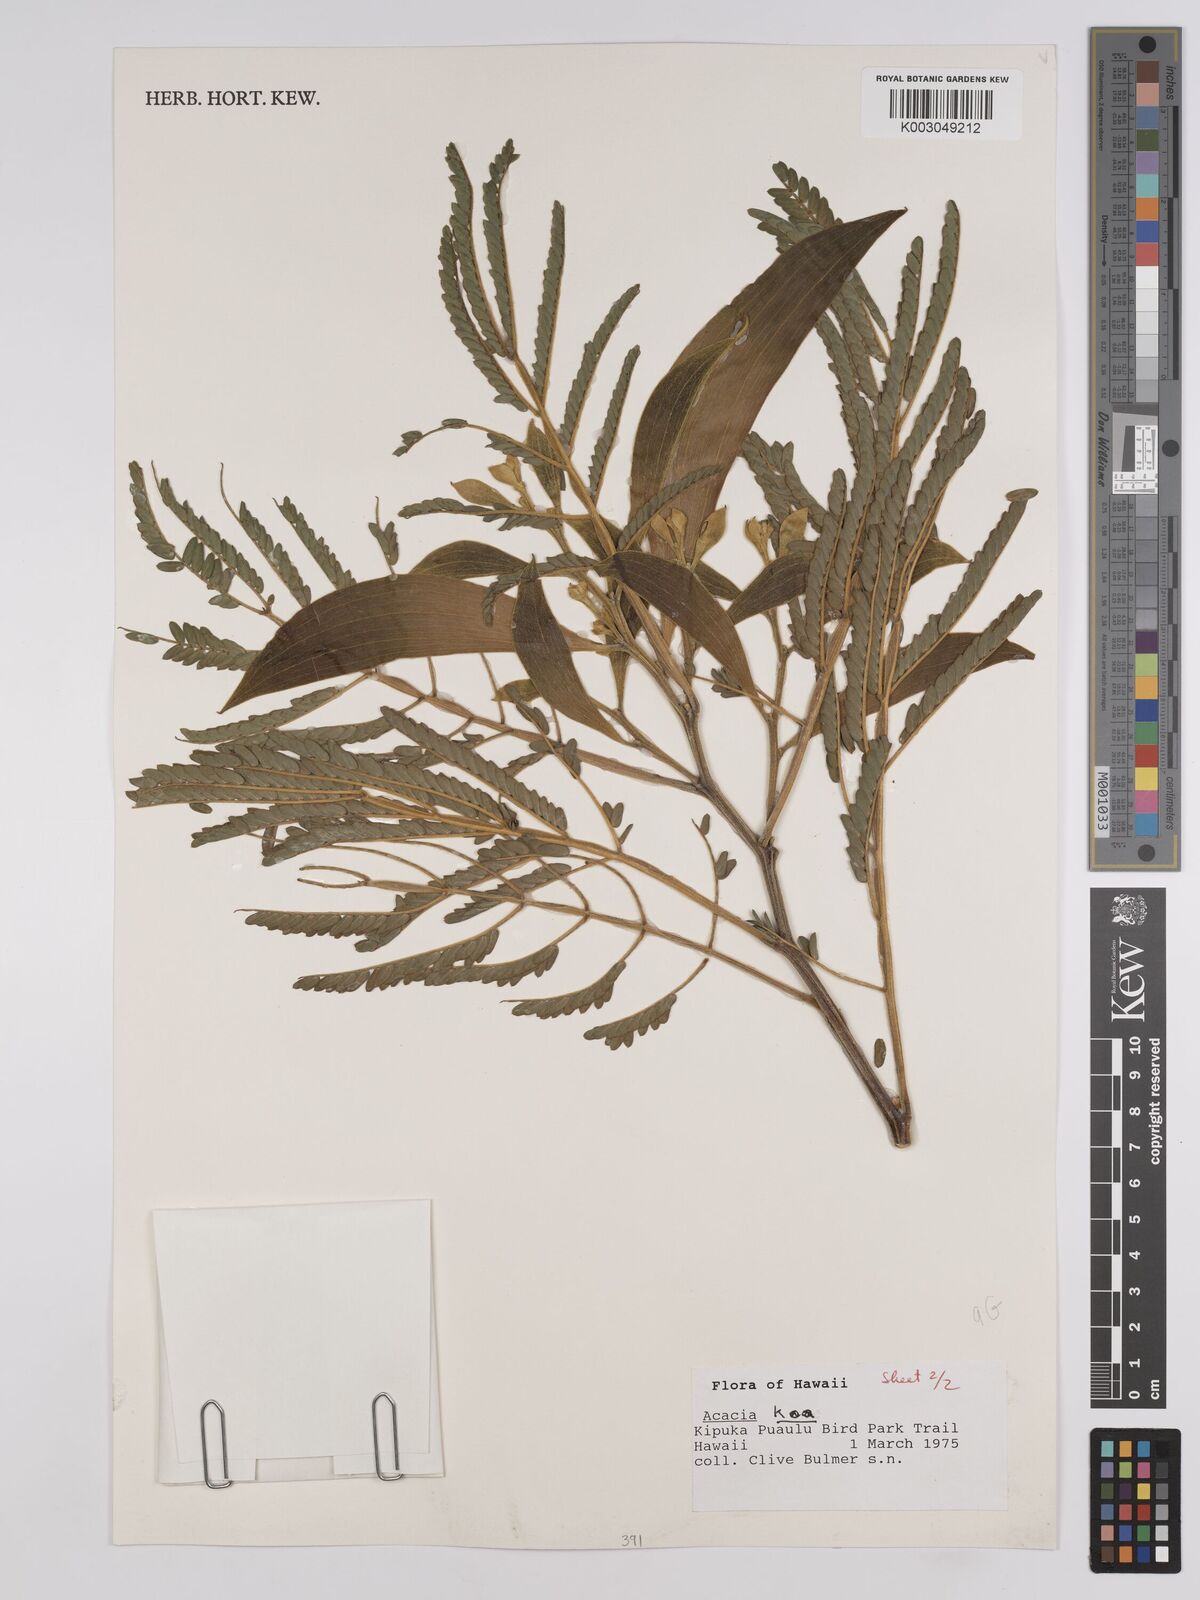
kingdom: Plantae
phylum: Tracheophyta
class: Magnoliopsida
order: Fabales
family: Fabaceae
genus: Acacia
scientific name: Acacia koa
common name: Gray koa
